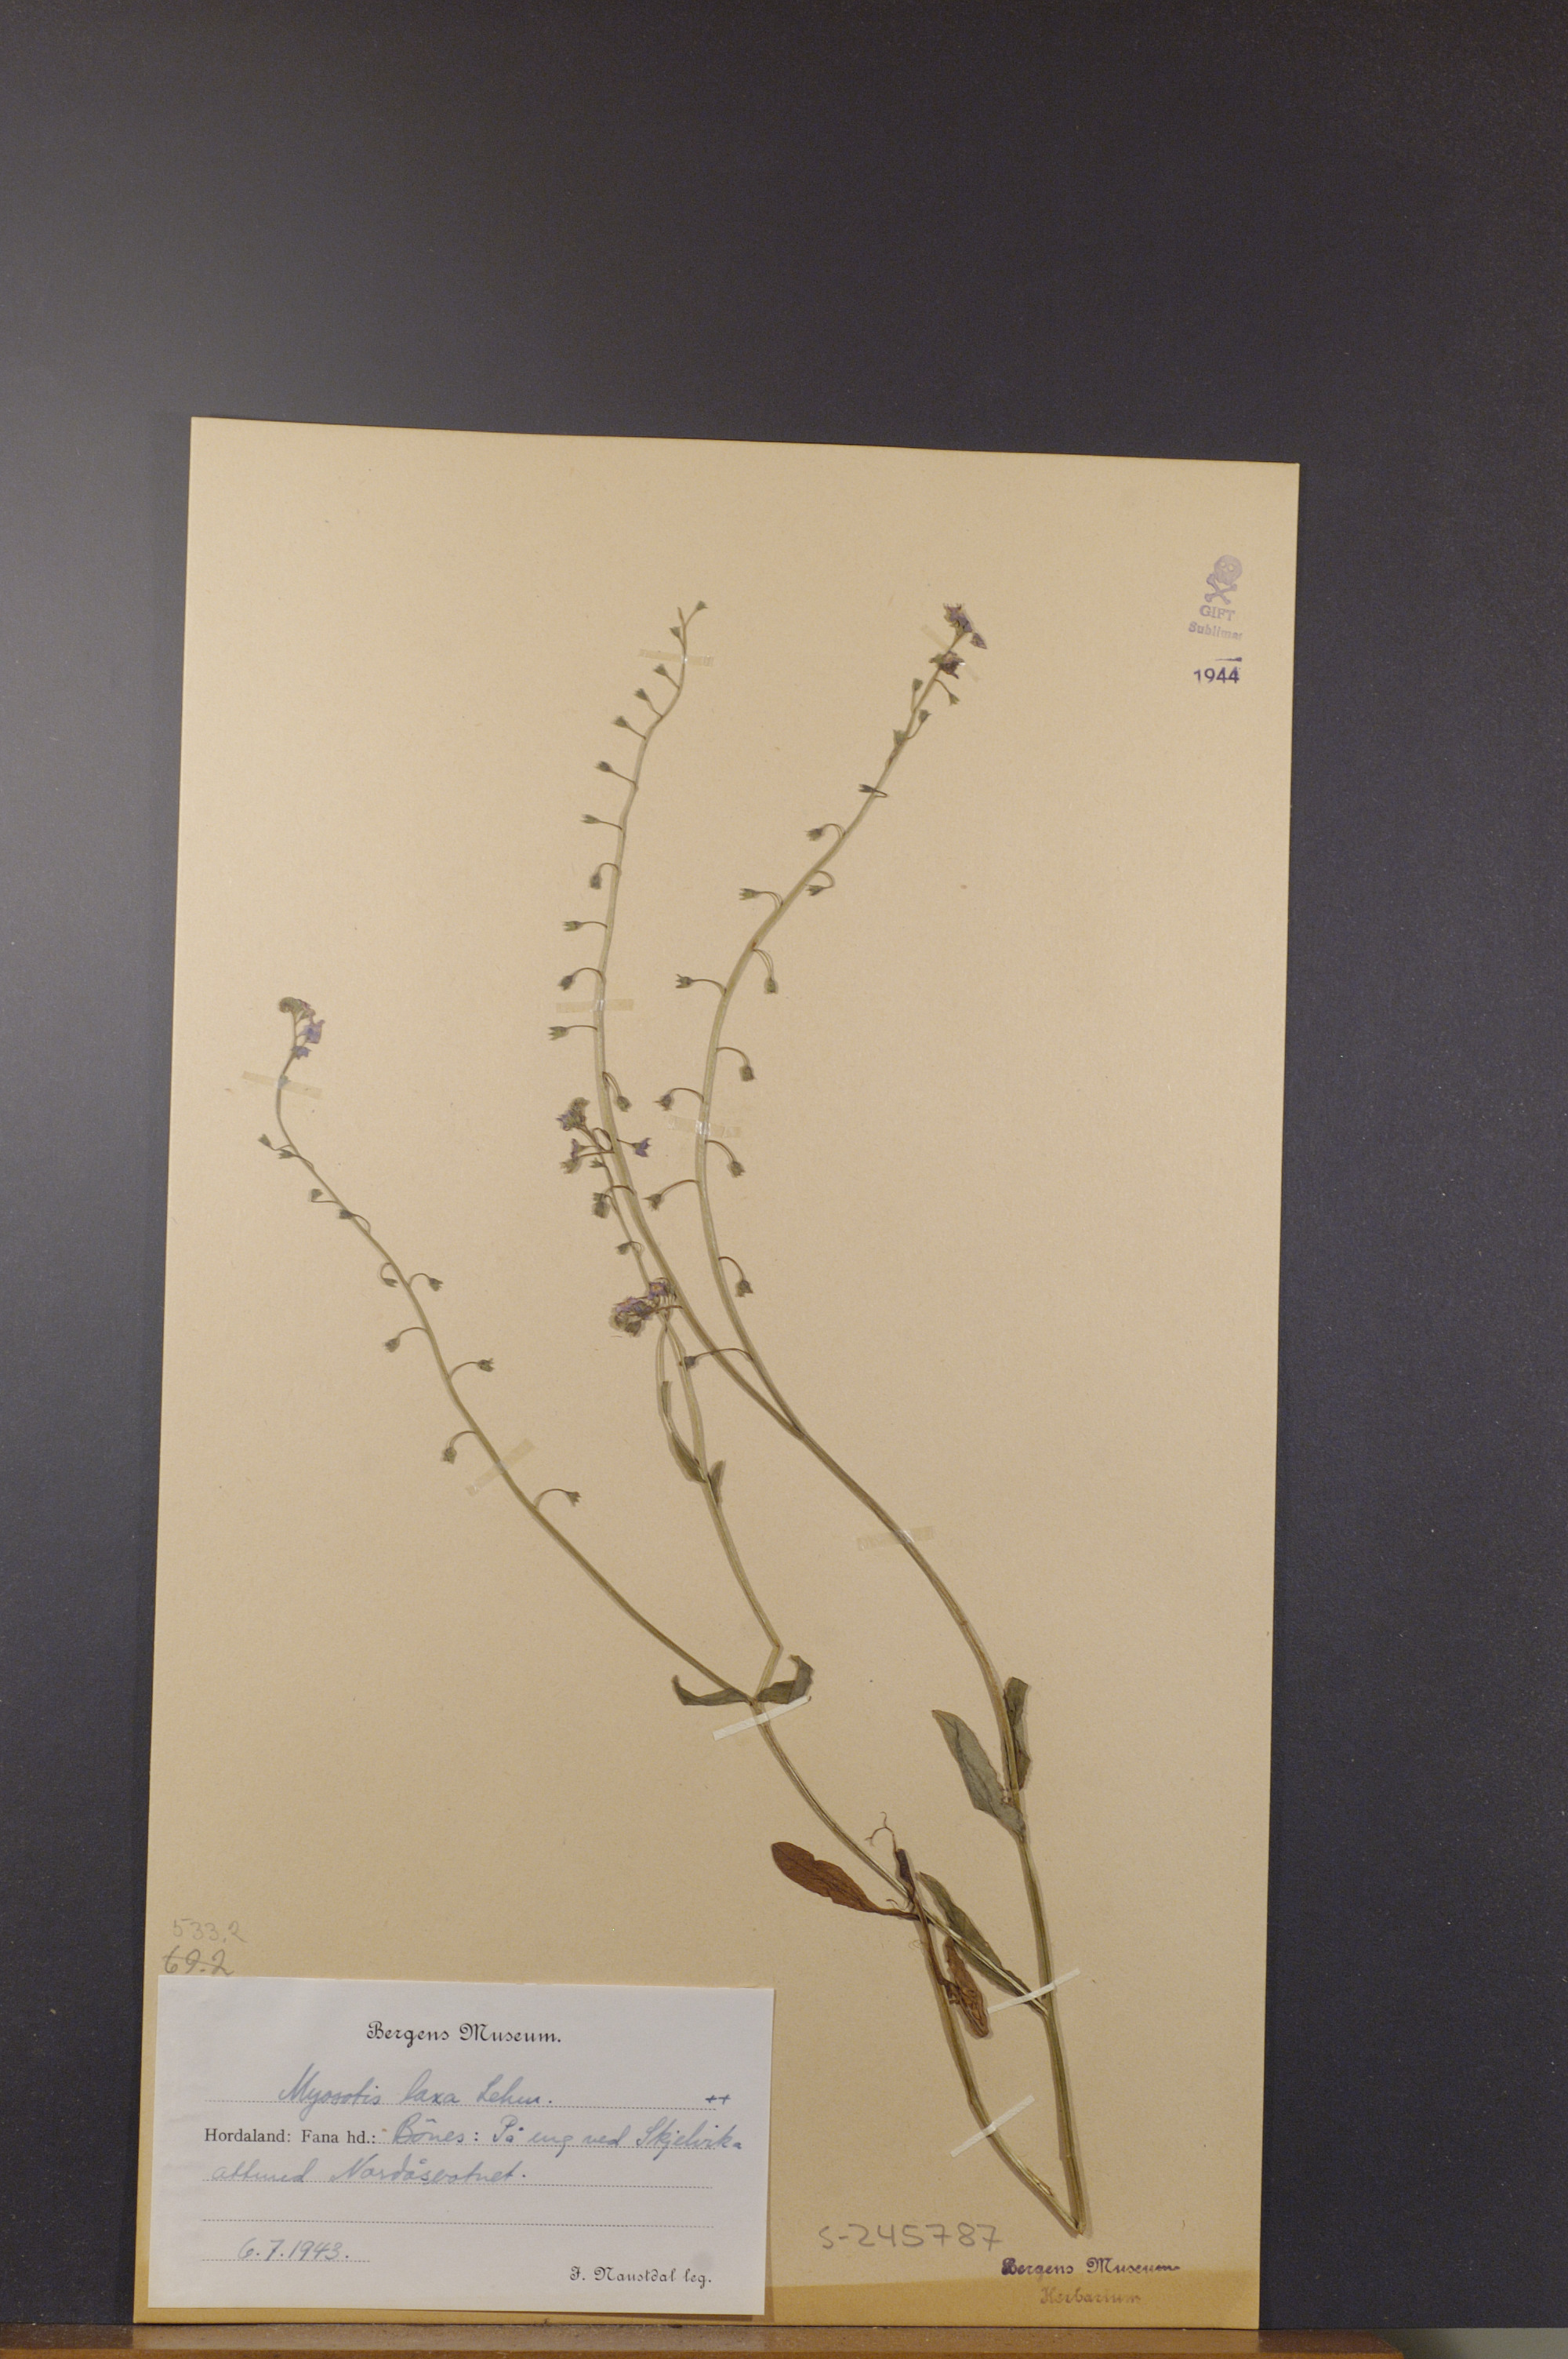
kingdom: Plantae
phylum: Tracheophyta
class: Magnoliopsida
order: Boraginales
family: Boraginaceae
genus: Myosotis
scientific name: Myosotis laxa
